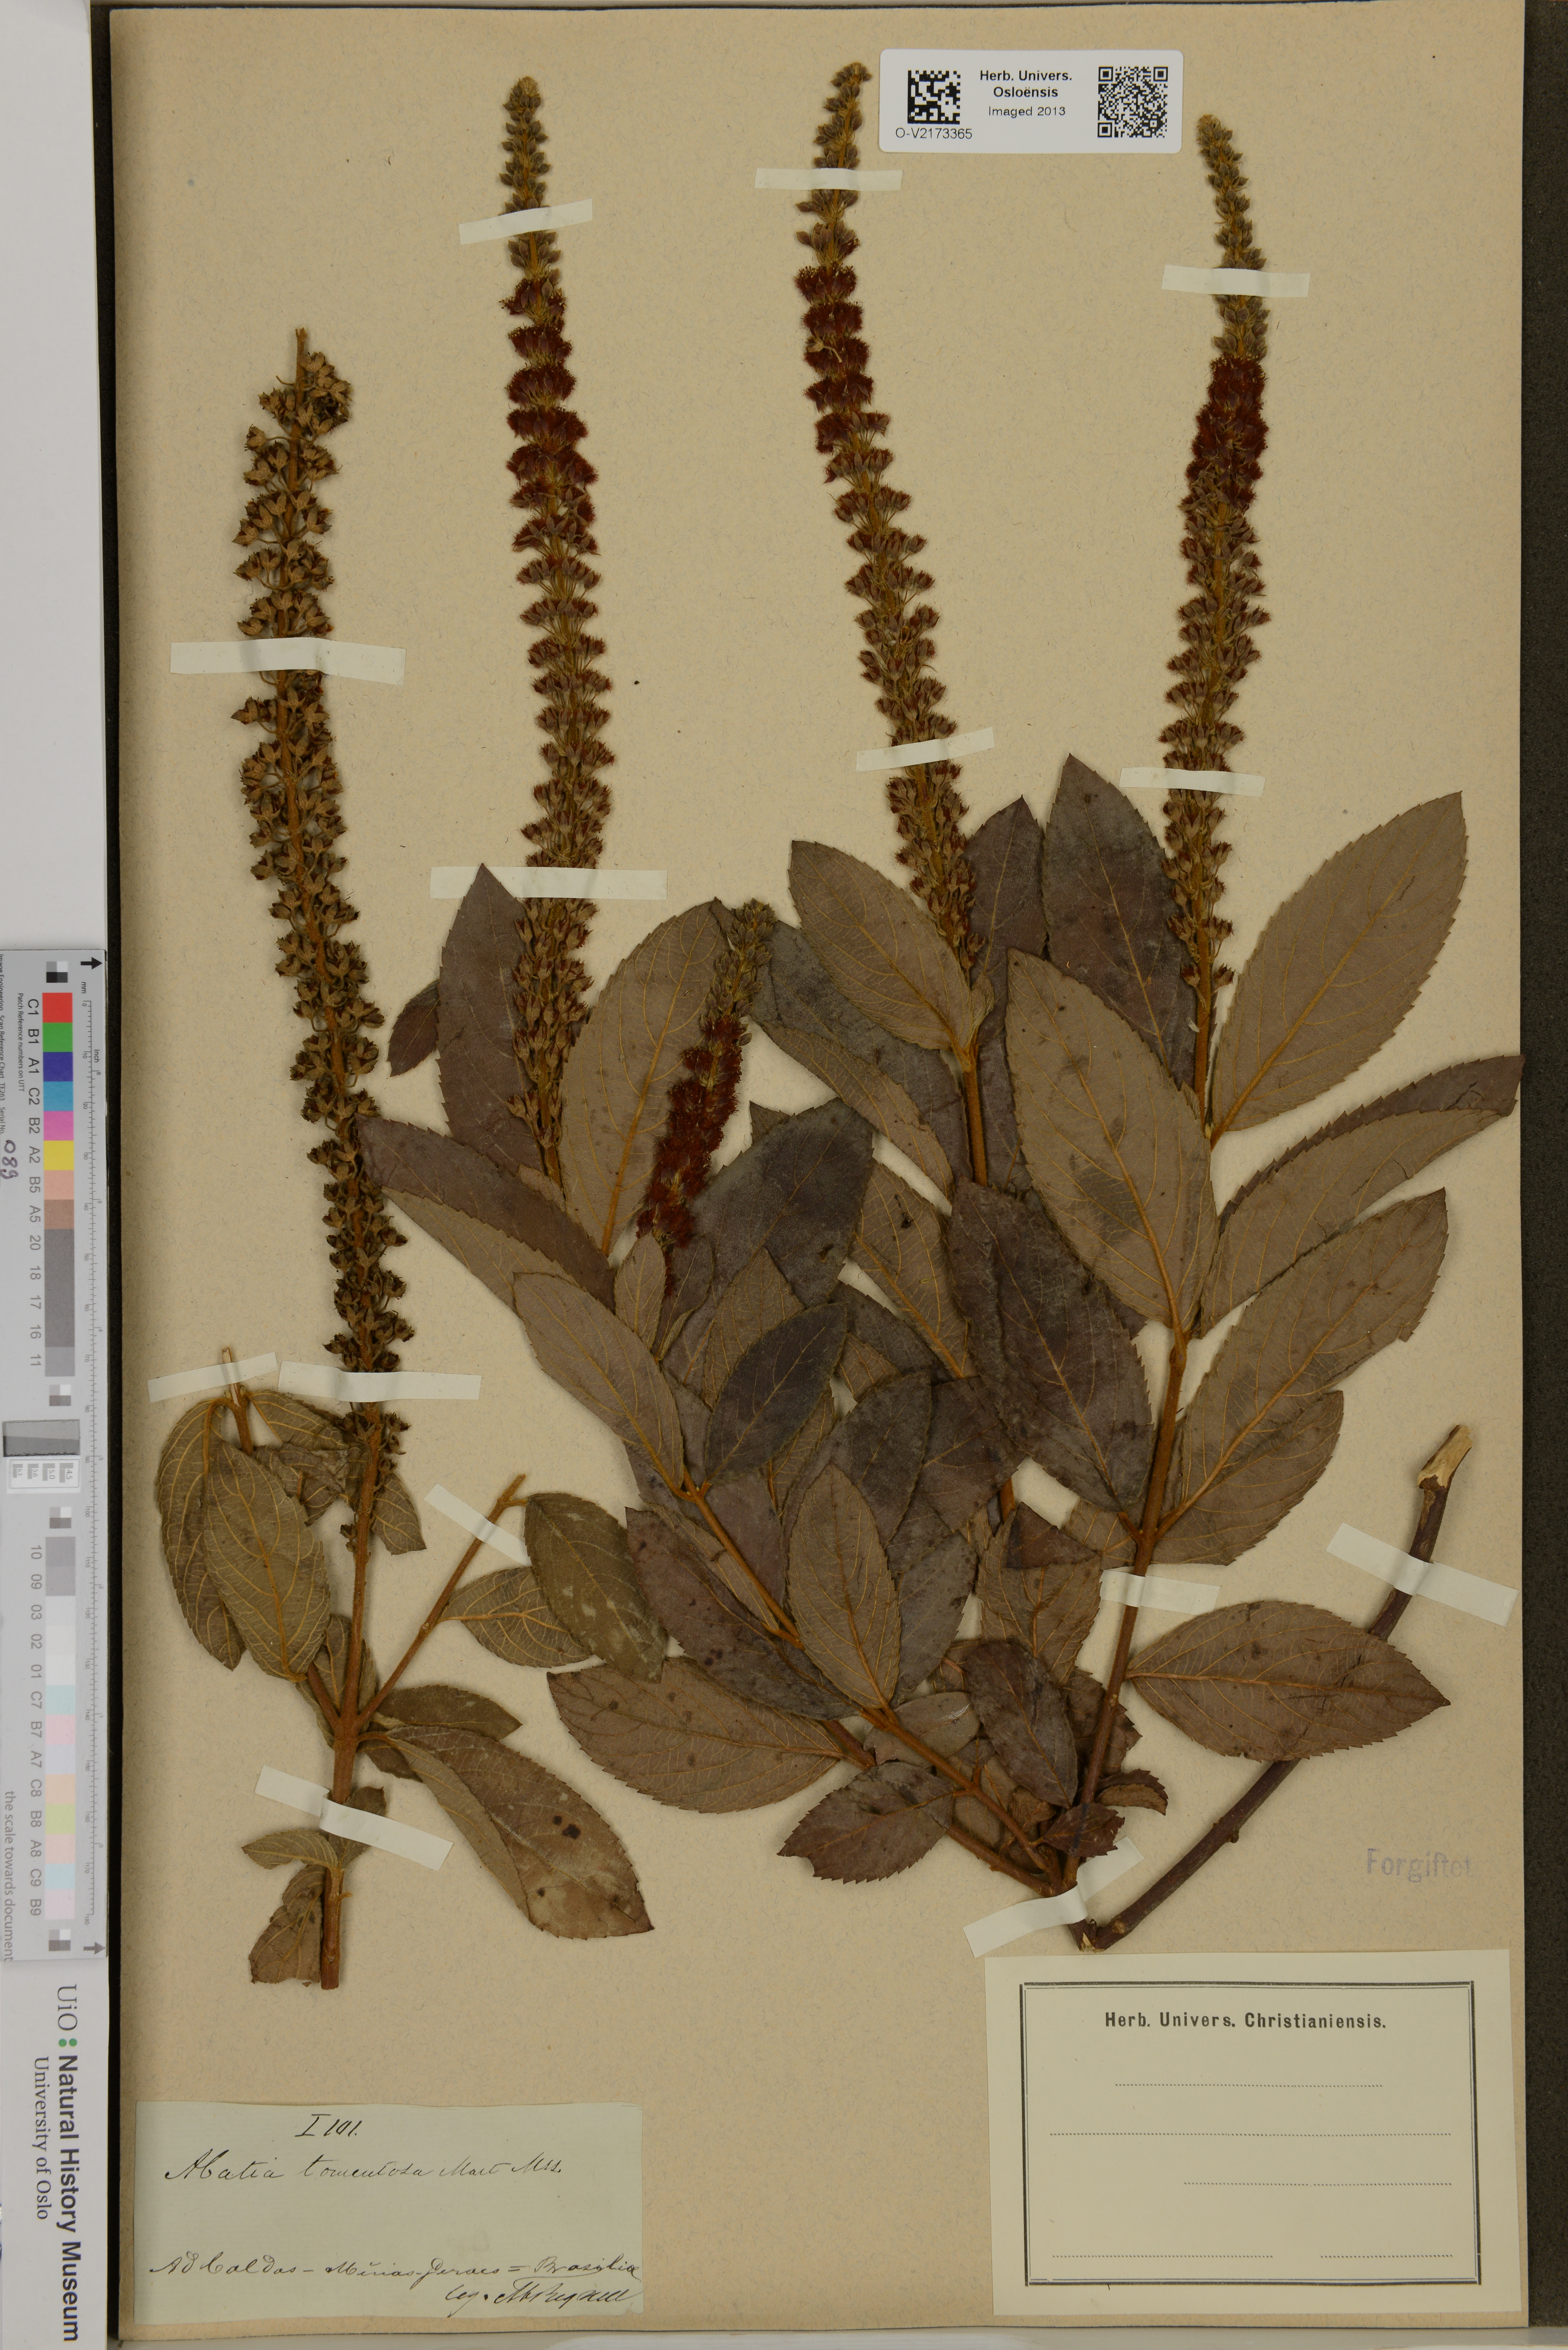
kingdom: Plantae
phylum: Tracheophyta
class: Magnoliopsida
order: Malpighiales
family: Salicaceae
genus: Abatia
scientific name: Abatia americana
